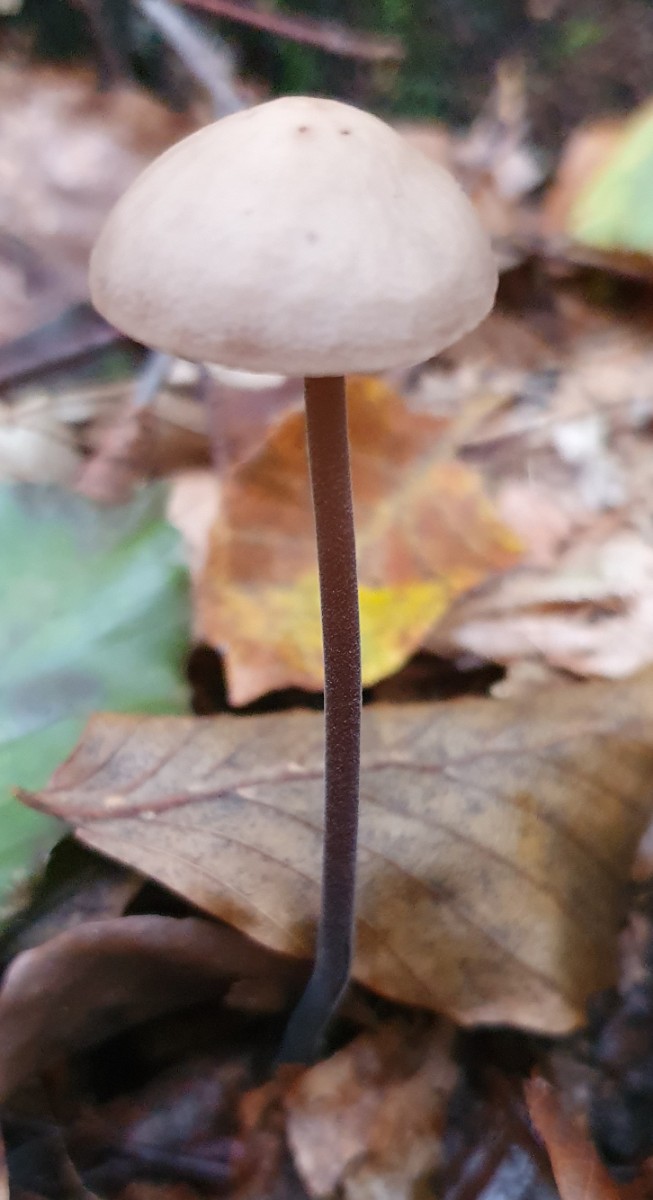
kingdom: Fungi
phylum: Basidiomycota
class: Agaricomycetes
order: Agaricales
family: Omphalotaceae
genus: Mycetinis
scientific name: Mycetinis alliaceus
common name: stor løghat
